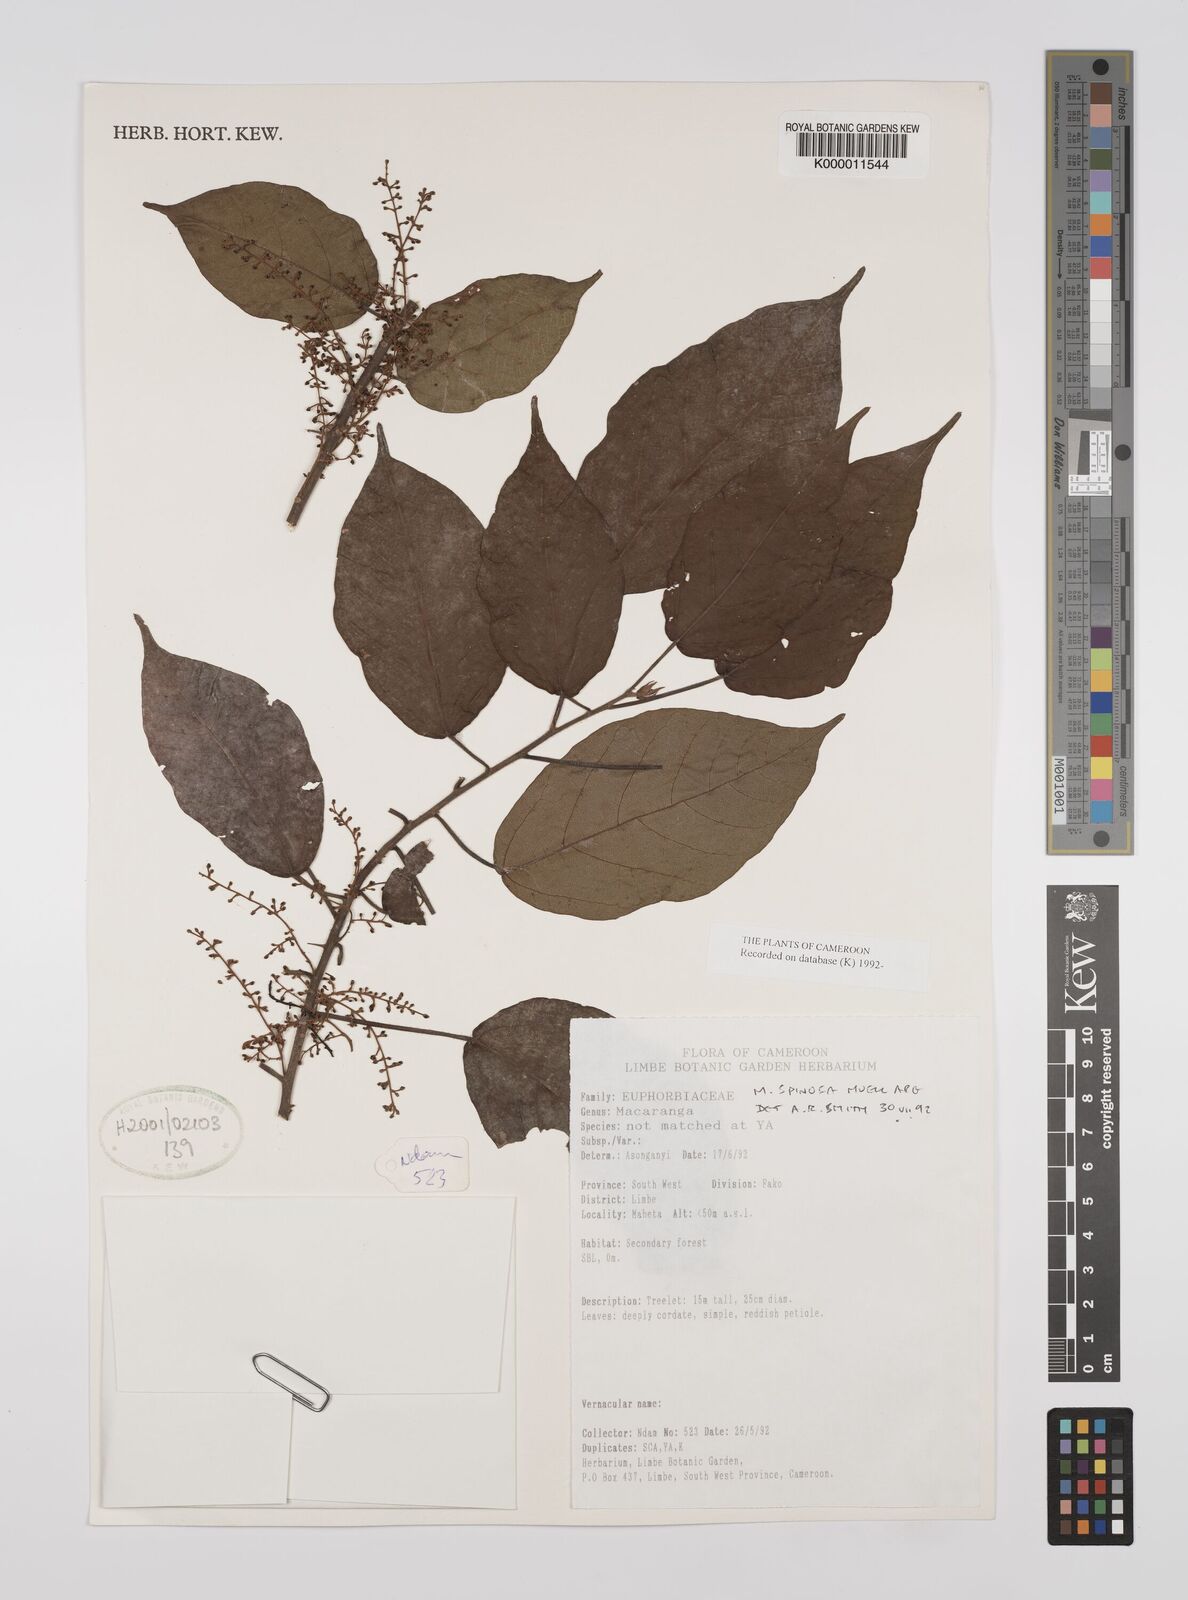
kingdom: Plantae
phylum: Tracheophyta
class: Magnoliopsida
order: Malpighiales
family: Euphorbiaceae
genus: Macaranga
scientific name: Macaranga
